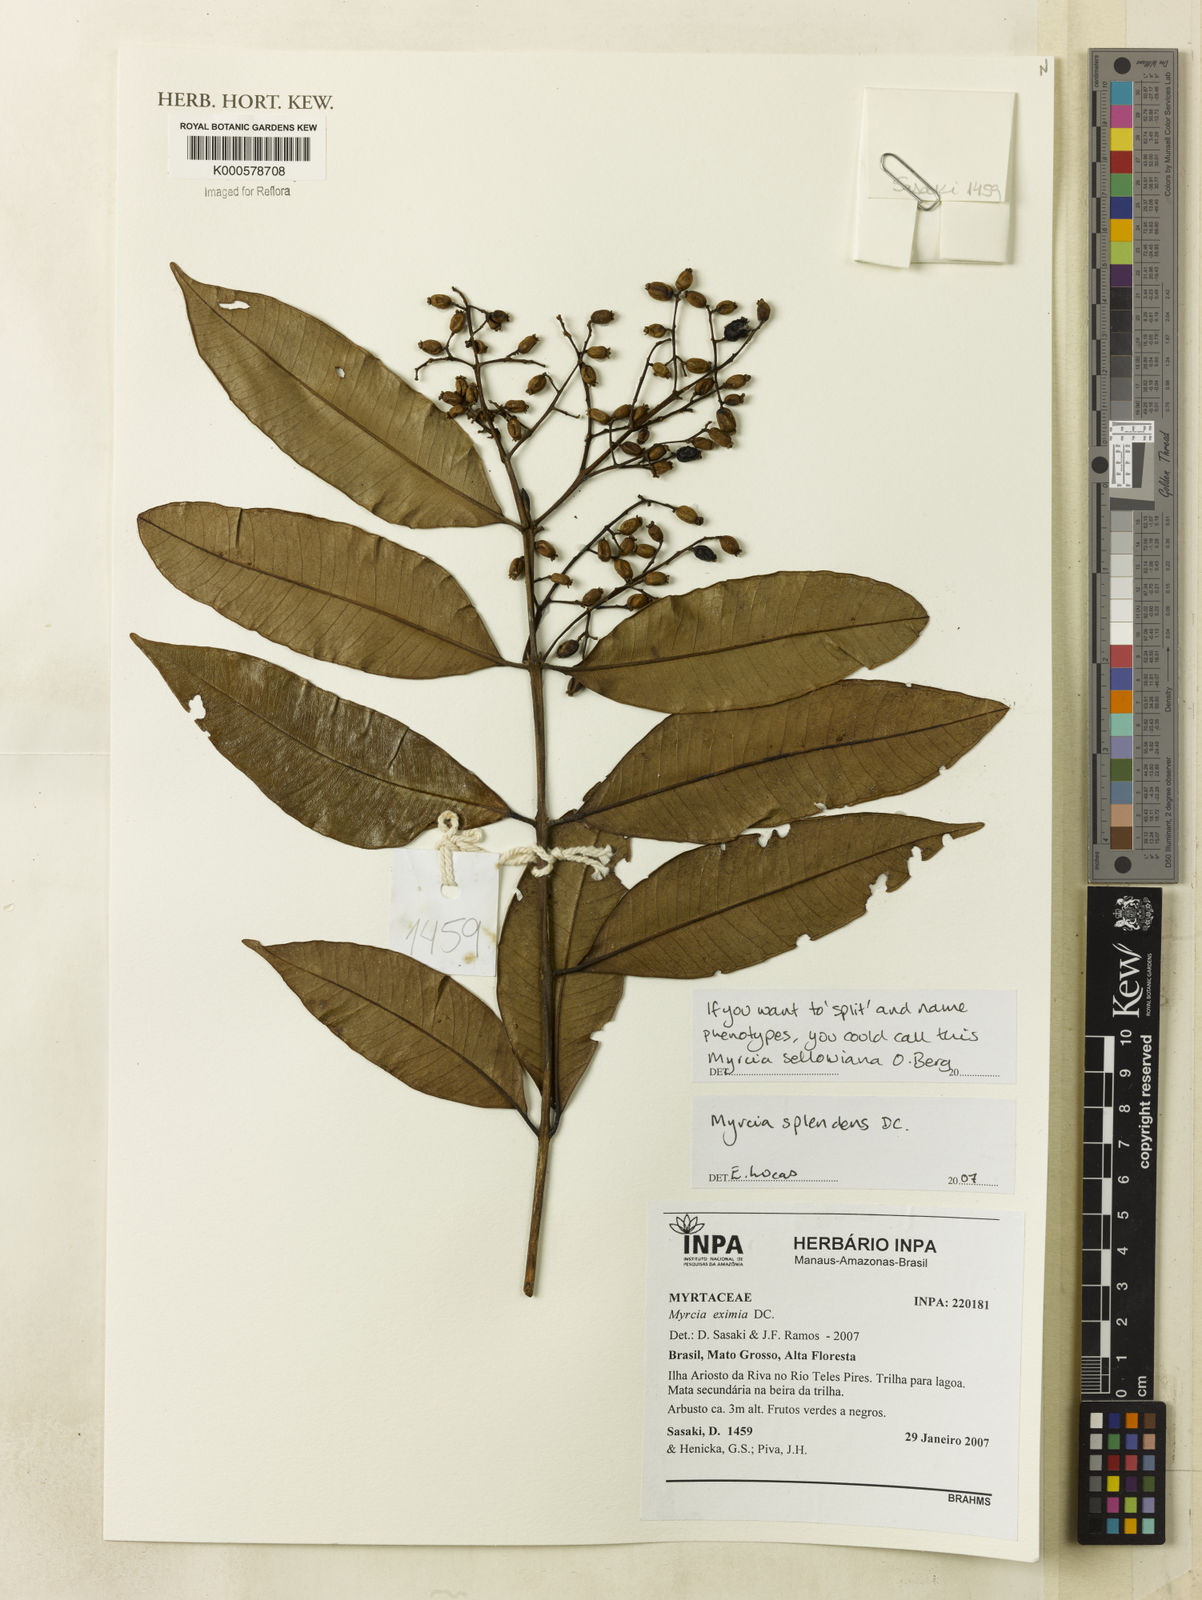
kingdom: Plantae
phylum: Tracheophyta
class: Magnoliopsida
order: Myrtales
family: Myrtaceae
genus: Myrcia
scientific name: Myrcia splendens
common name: Surinam cherry
